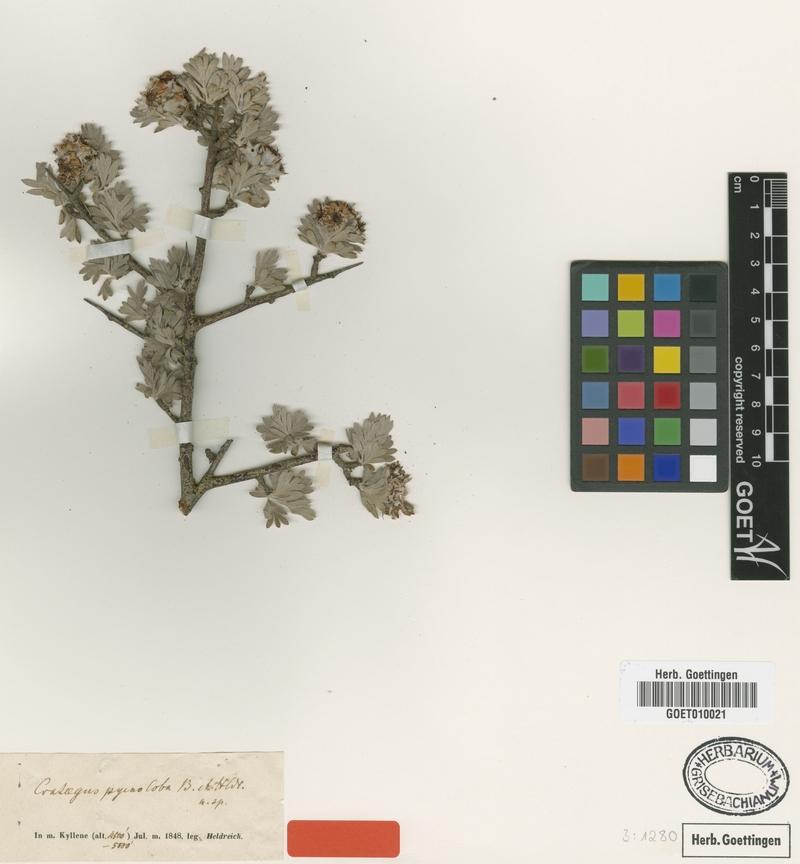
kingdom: Plantae
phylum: Tracheophyta
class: Magnoliopsida
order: Rosales
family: Rosaceae
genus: Crataegus
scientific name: Crataegus pycnoloba
